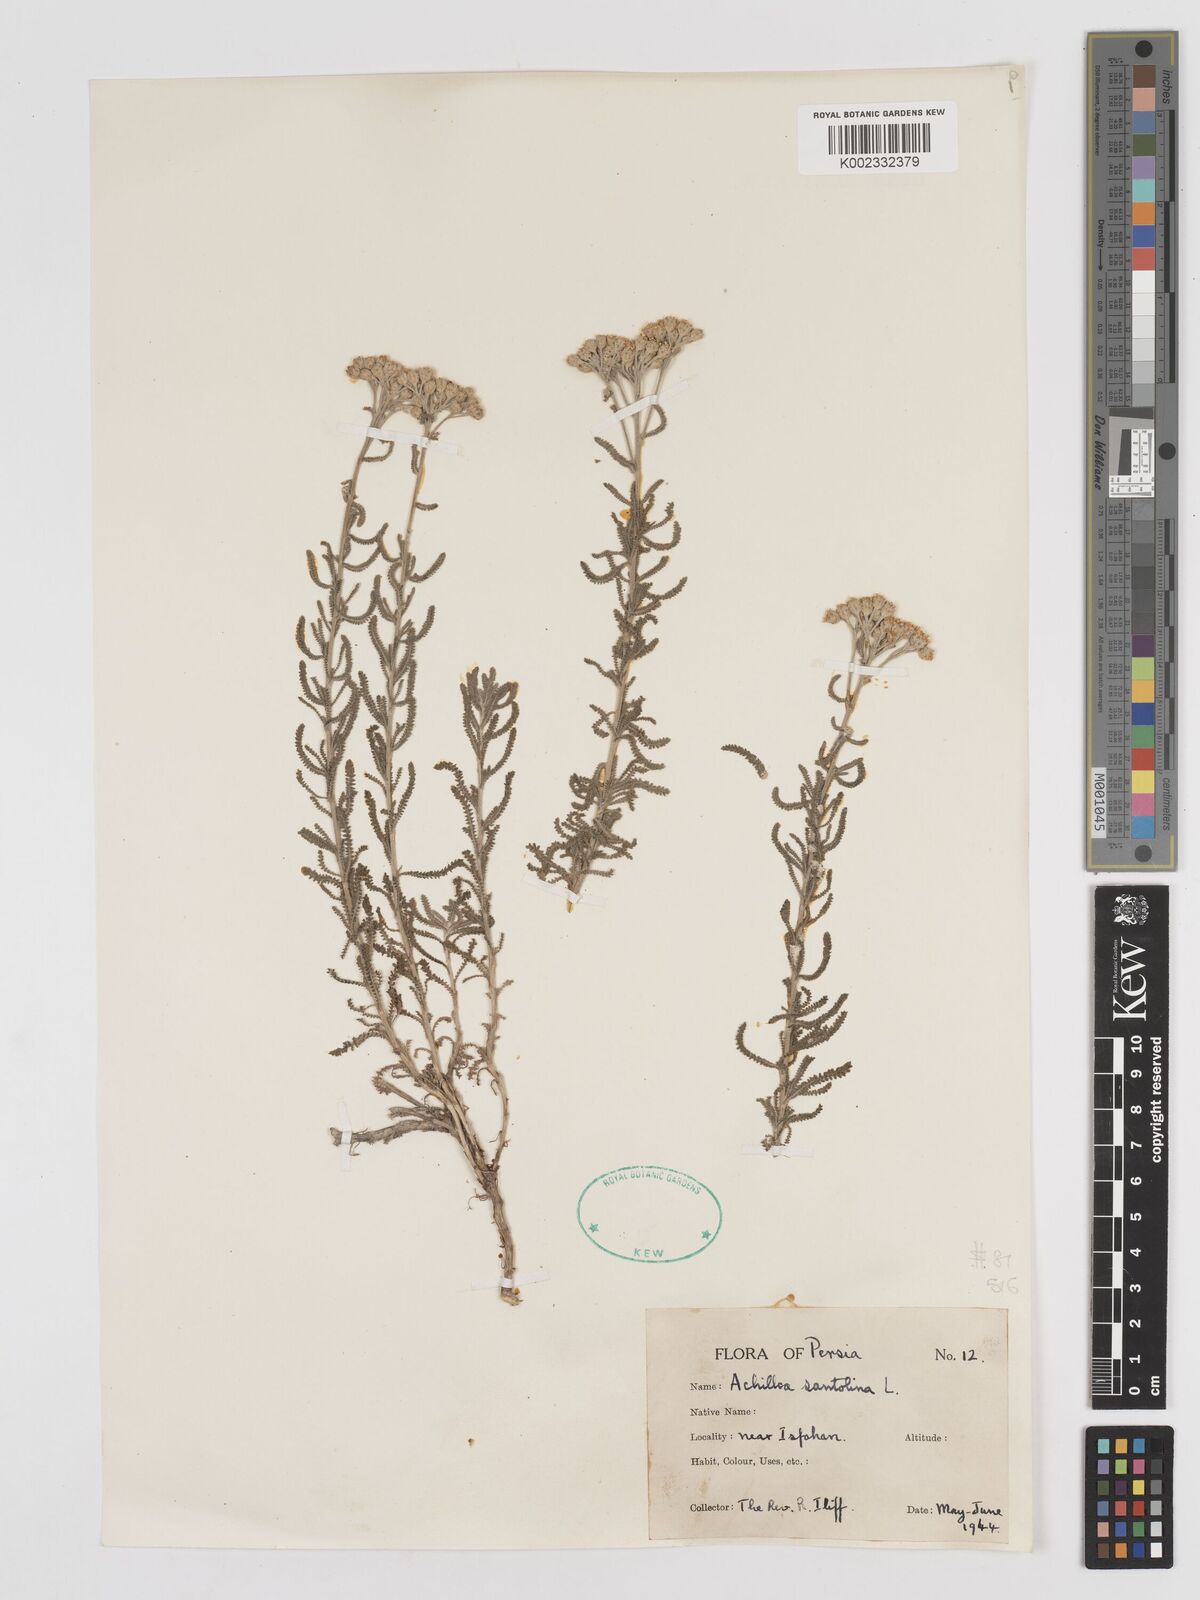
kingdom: Plantae
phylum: Tracheophyta
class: Magnoliopsida
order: Asterales
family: Asteraceae
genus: Achillea
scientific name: Achillea cretica
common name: Chamomile-leaved lavender-cotton
